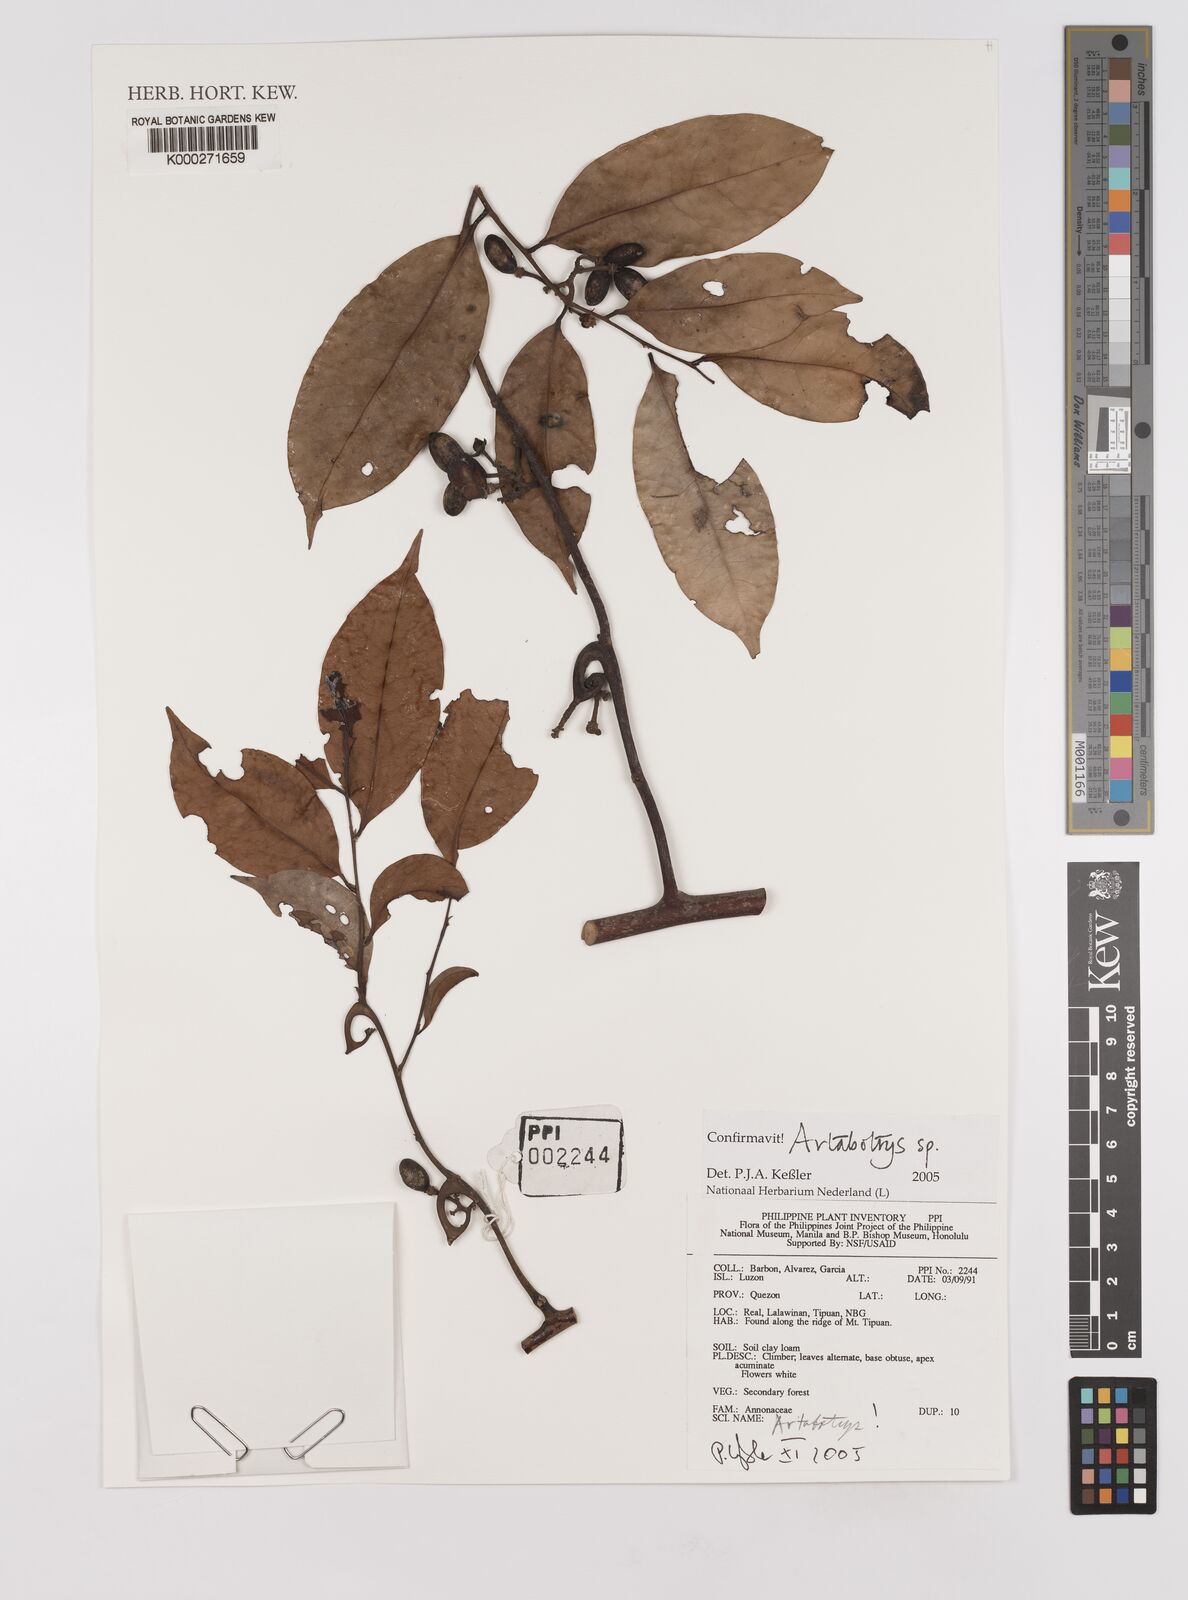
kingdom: Plantae
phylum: Tracheophyta
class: Magnoliopsida
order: Magnoliales
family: Annonaceae
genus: Artabotrys
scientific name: Artabotrys
